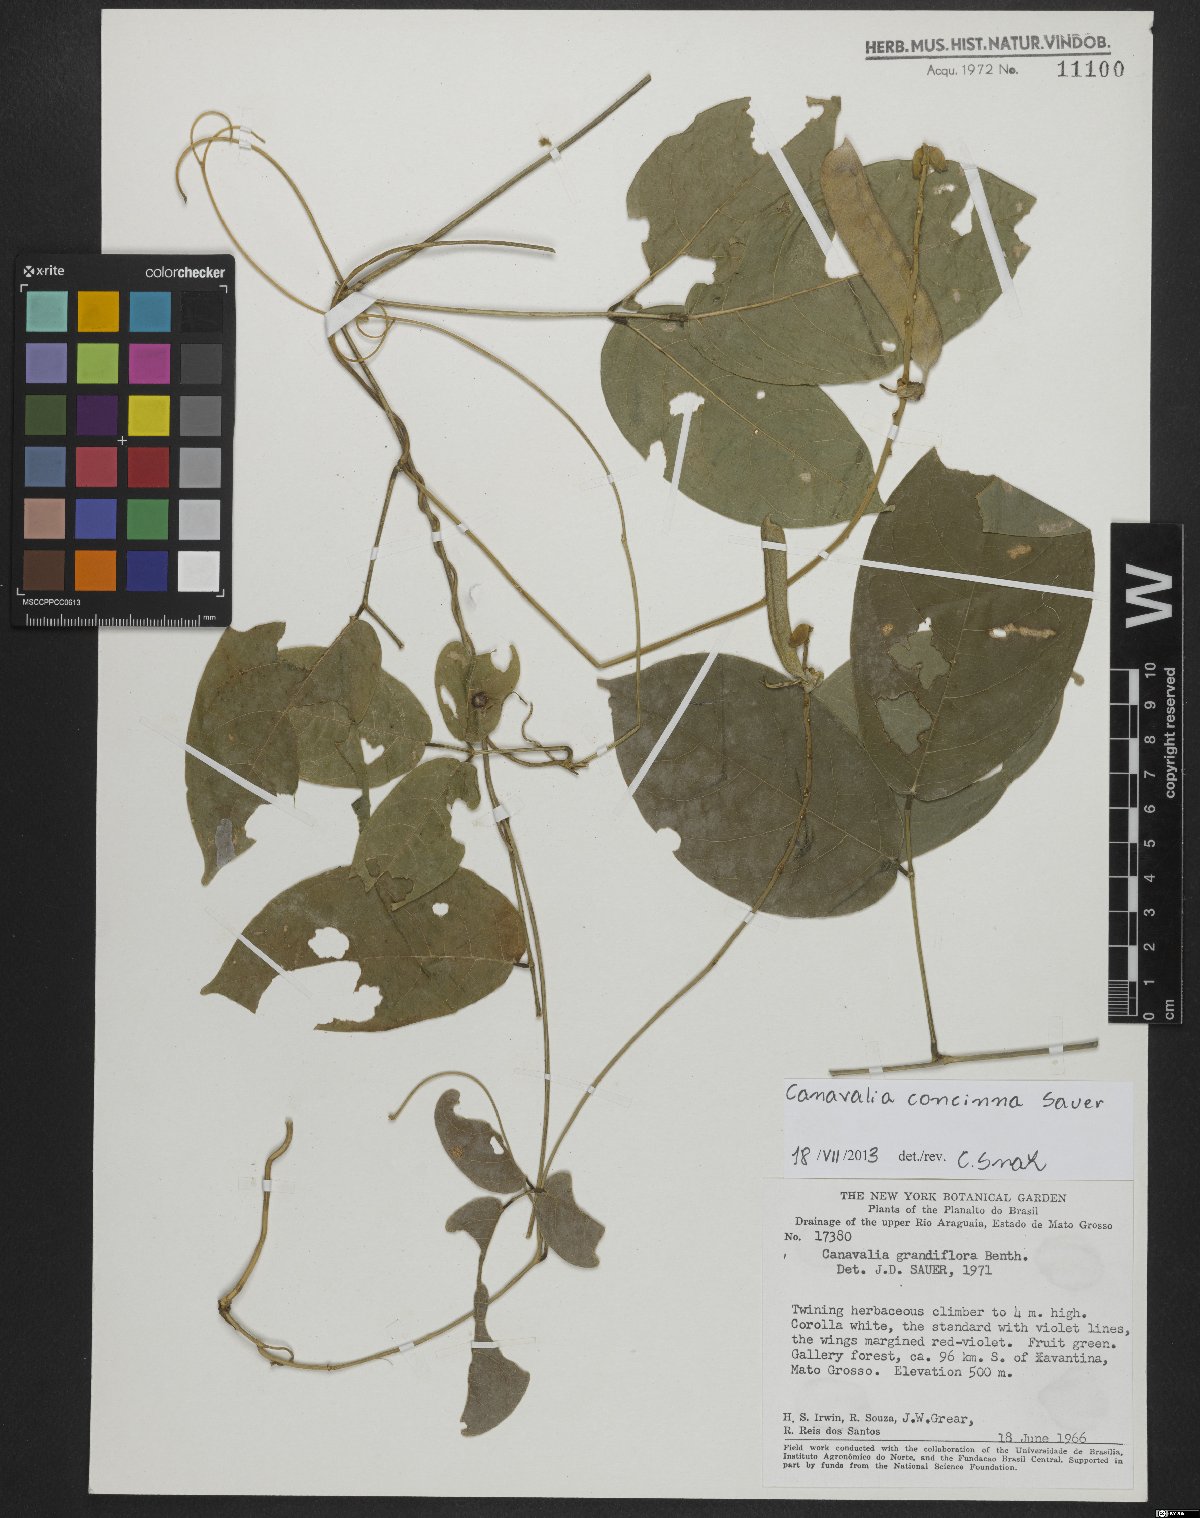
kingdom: Plantae
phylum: Tracheophyta
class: Magnoliopsida
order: Fabales
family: Fabaceae
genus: Canavalia
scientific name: Canavalia concinna
